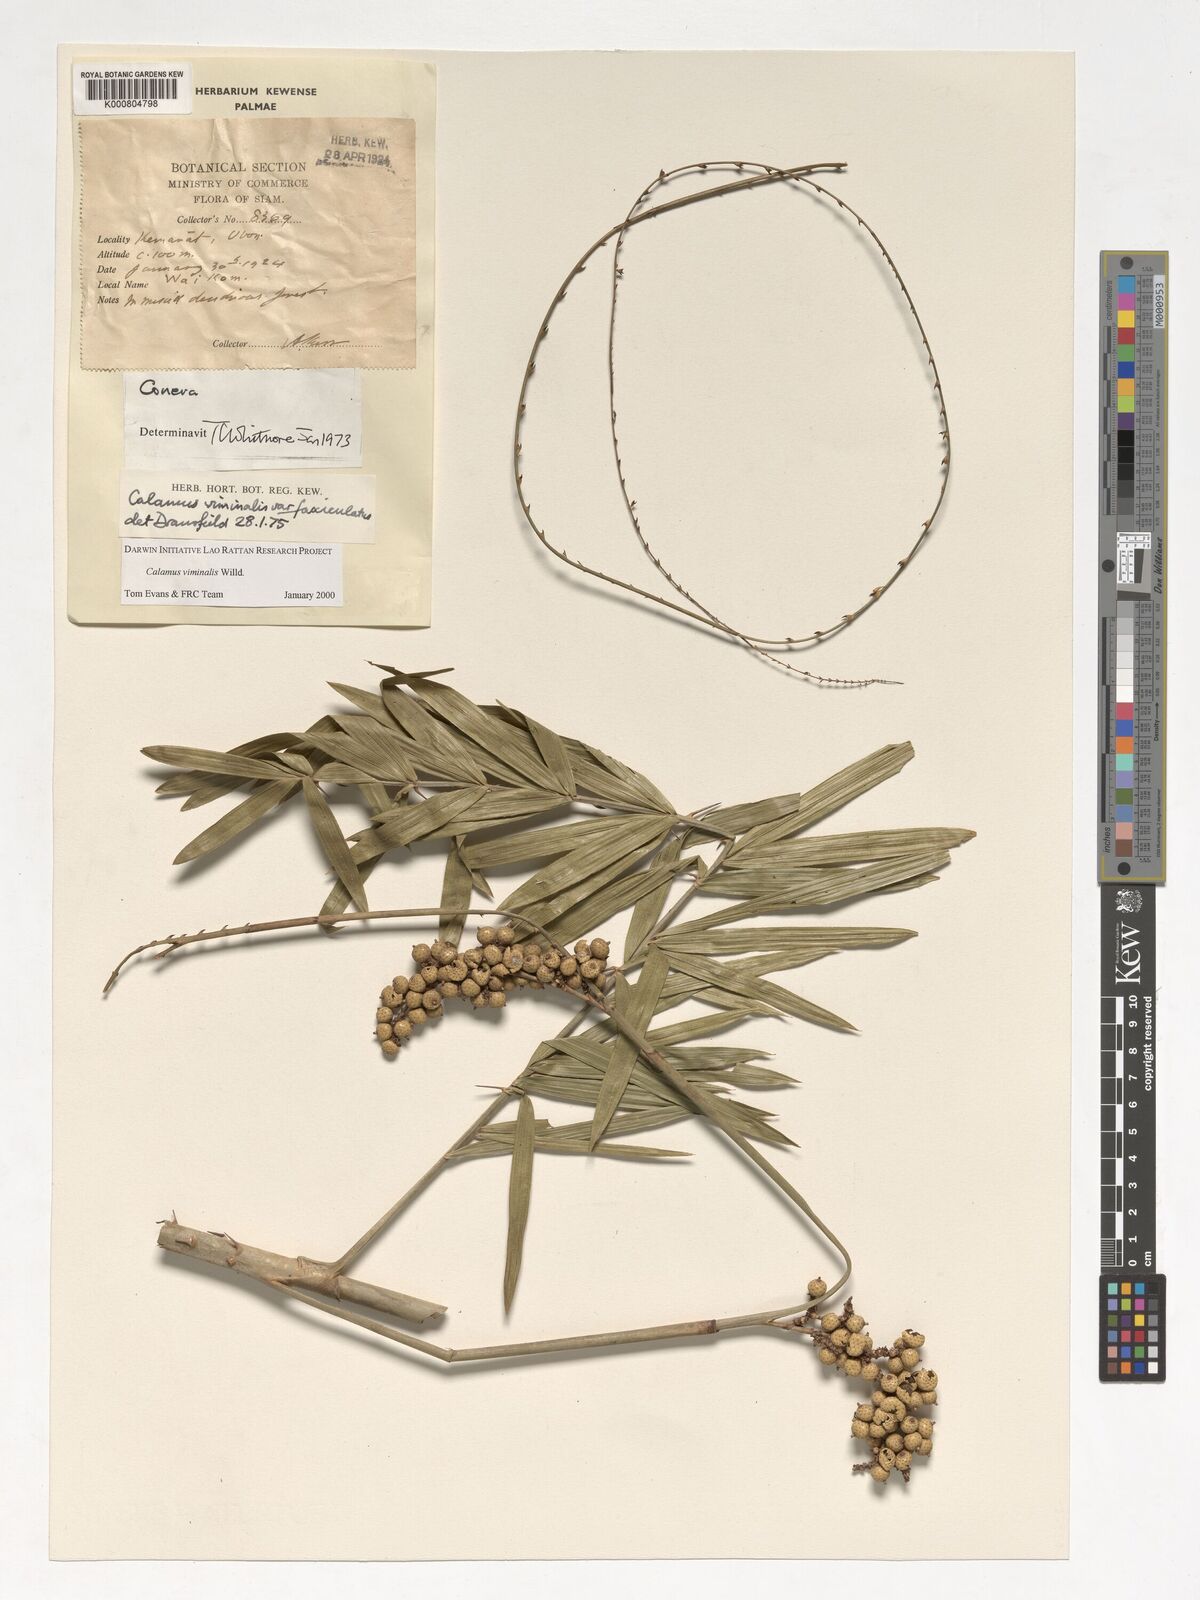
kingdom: Plantae
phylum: Tracheophyta
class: Liliopsida
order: Arecales
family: Arecaceae
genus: Calamus
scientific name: Calamus viminalis
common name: Osier-like rattan palm
